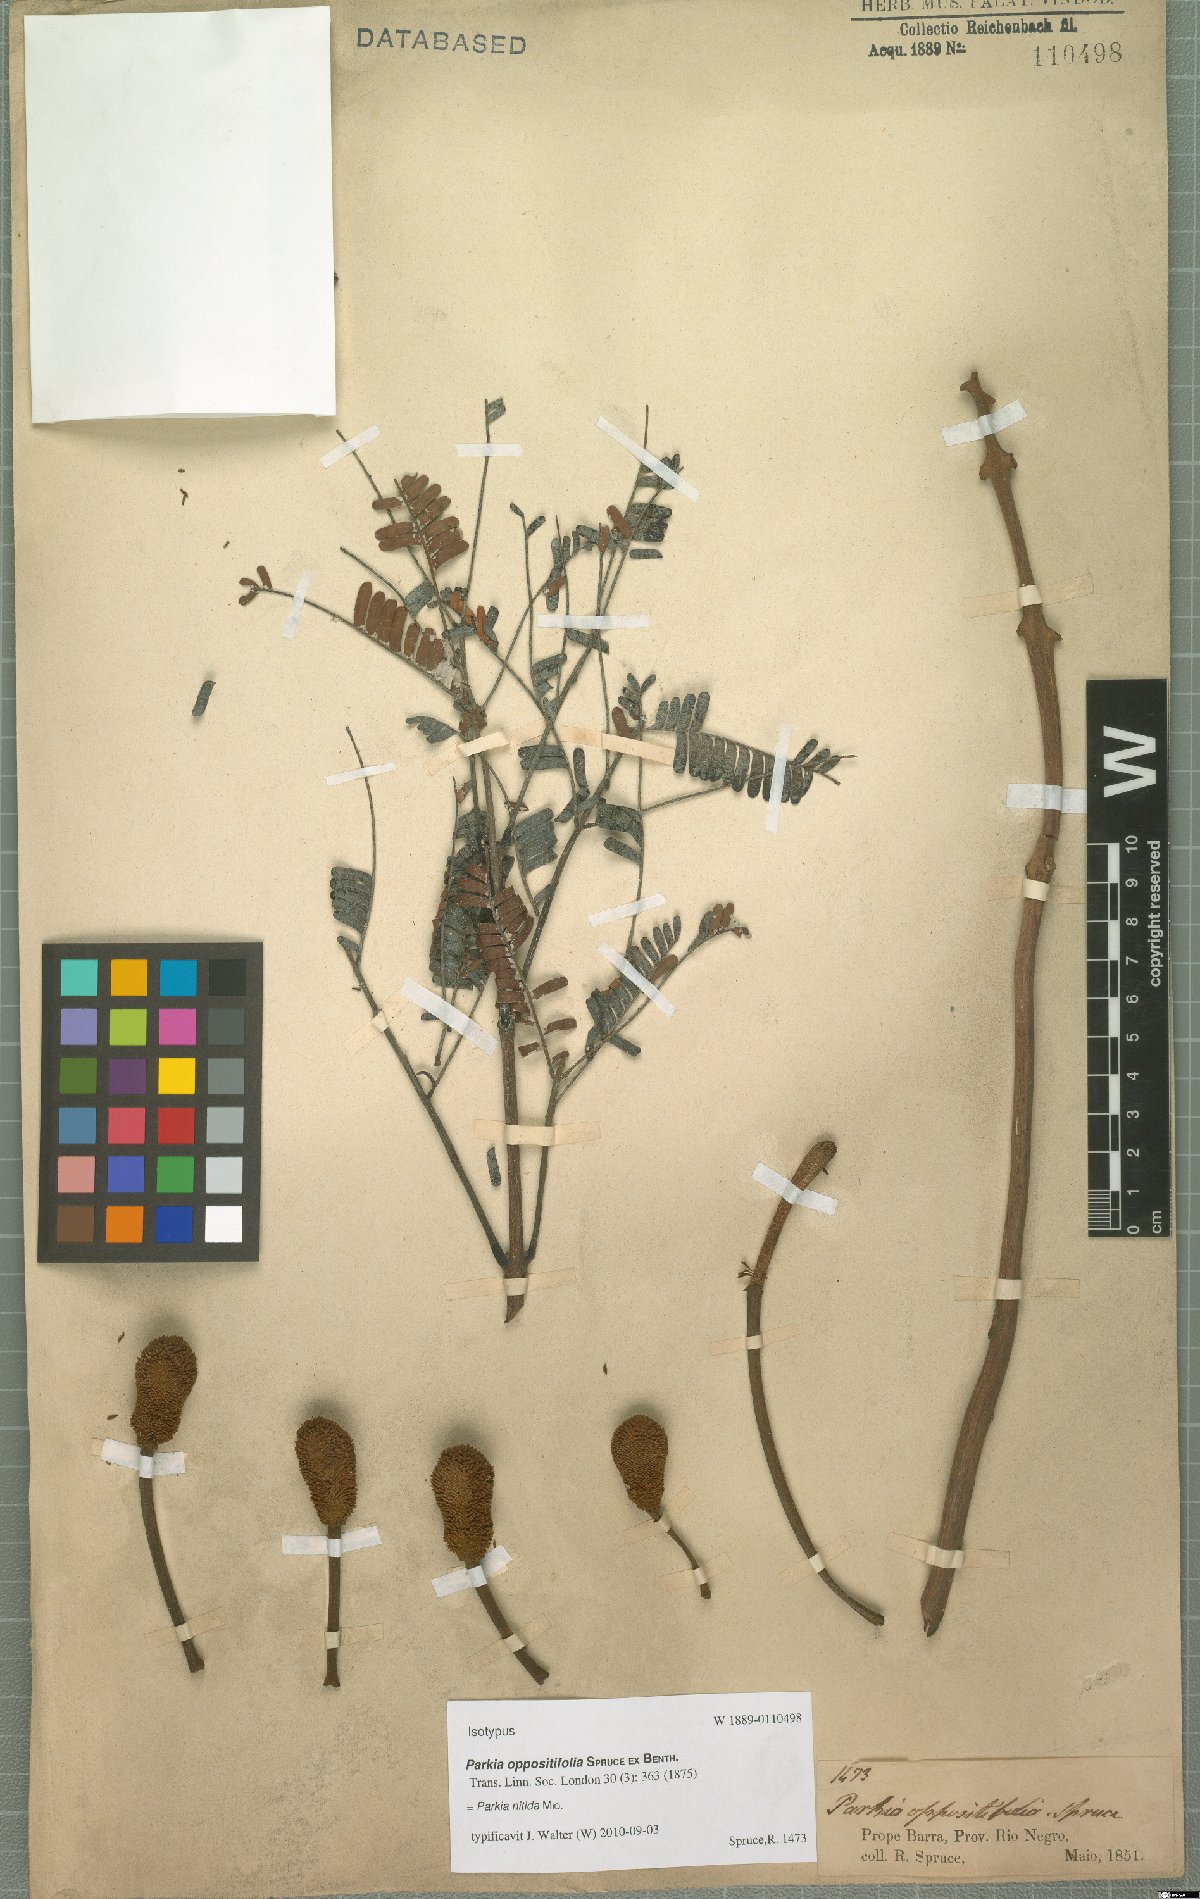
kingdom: Plantae
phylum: Tracheophyta
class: Magnoliopsida
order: Fabales
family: Fabaceae
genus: Parkia
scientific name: Parkia nitida
